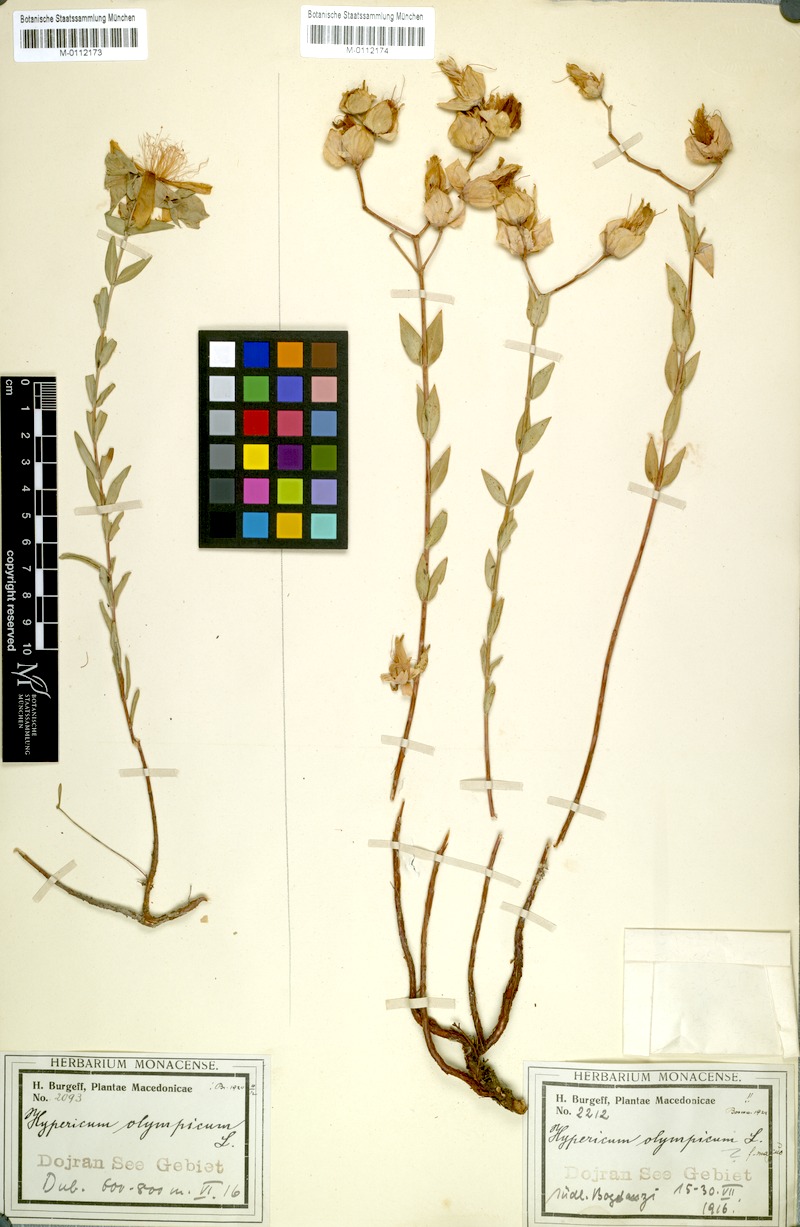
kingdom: Plantae
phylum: Tracheophyta
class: Magnoliopsida
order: Malpighiales
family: Hypericaceae
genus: Hypericum
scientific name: Hypericum olympicum
